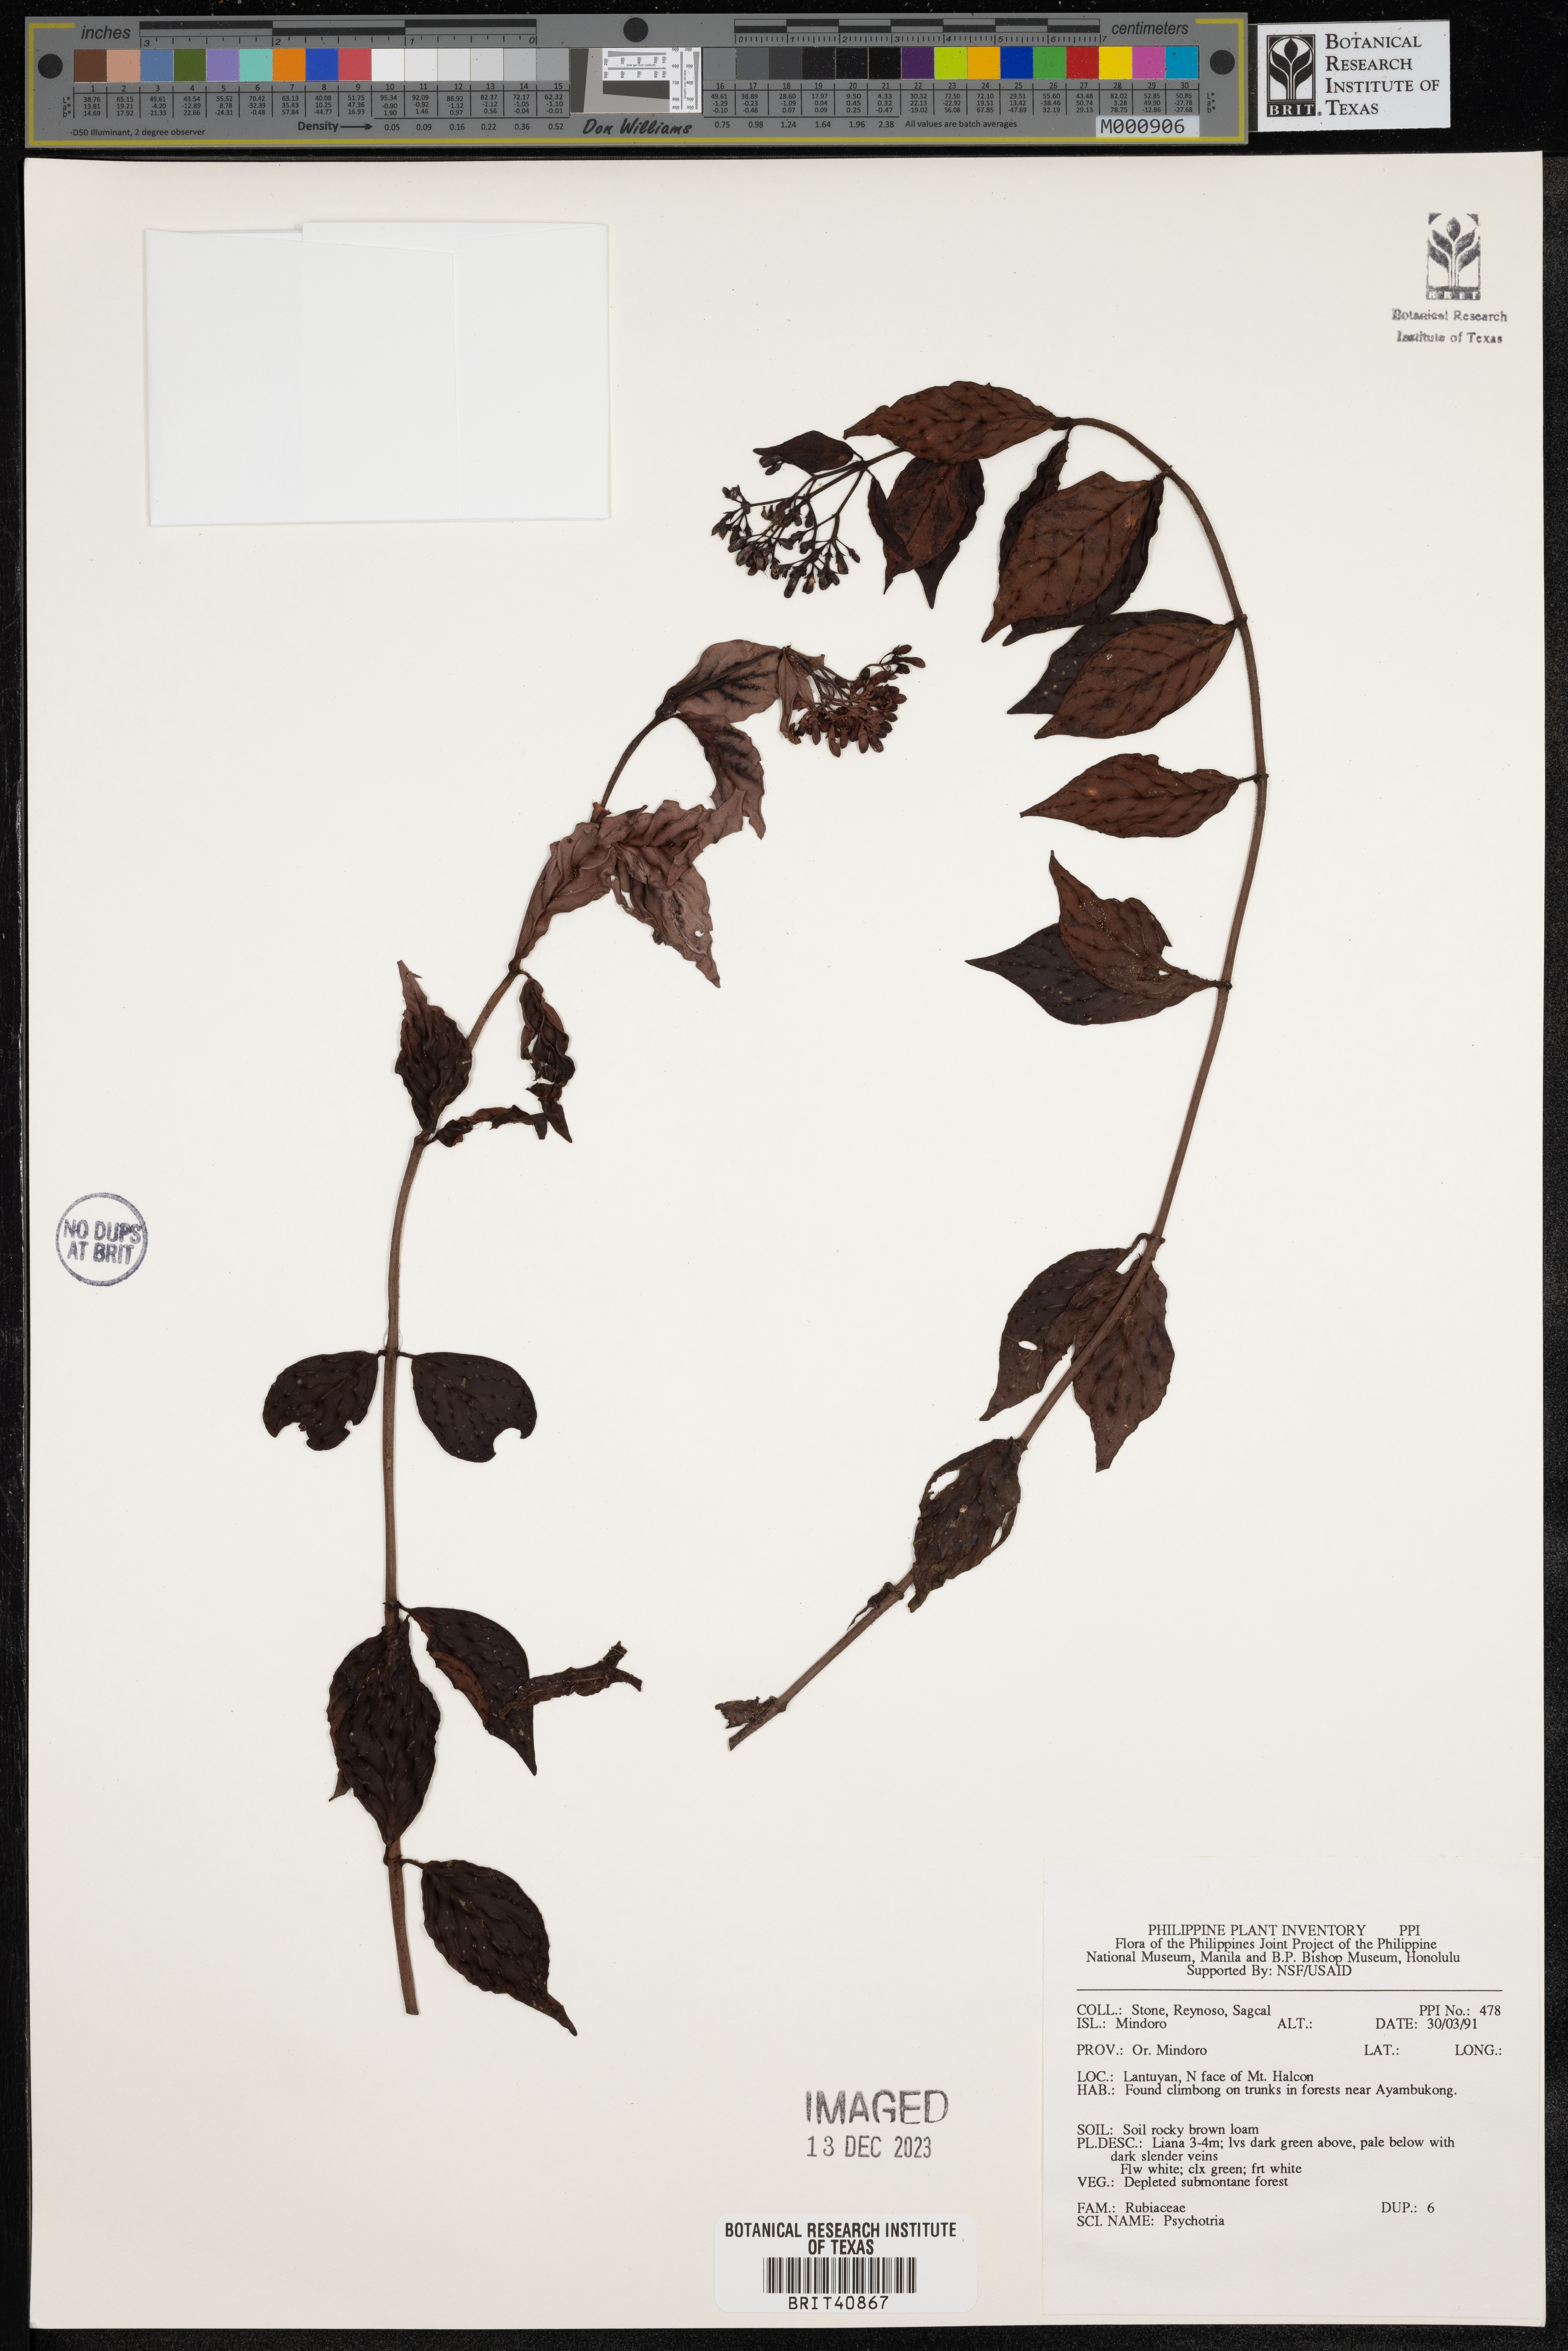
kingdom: Plantae
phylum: Tracheophyta
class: Magnoliopsida
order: Gentianales
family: Rubiaceae
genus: Psychotria
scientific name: Psychotria
